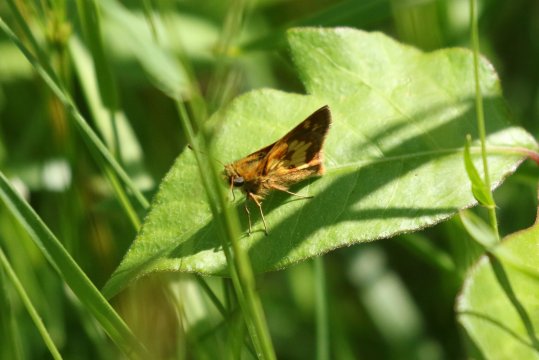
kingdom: Animalia
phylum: Arthropoda
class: Insecta
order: Lepidoptera
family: Hesperiidae
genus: Polites
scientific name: Polites coras
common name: Peck's Skipper
